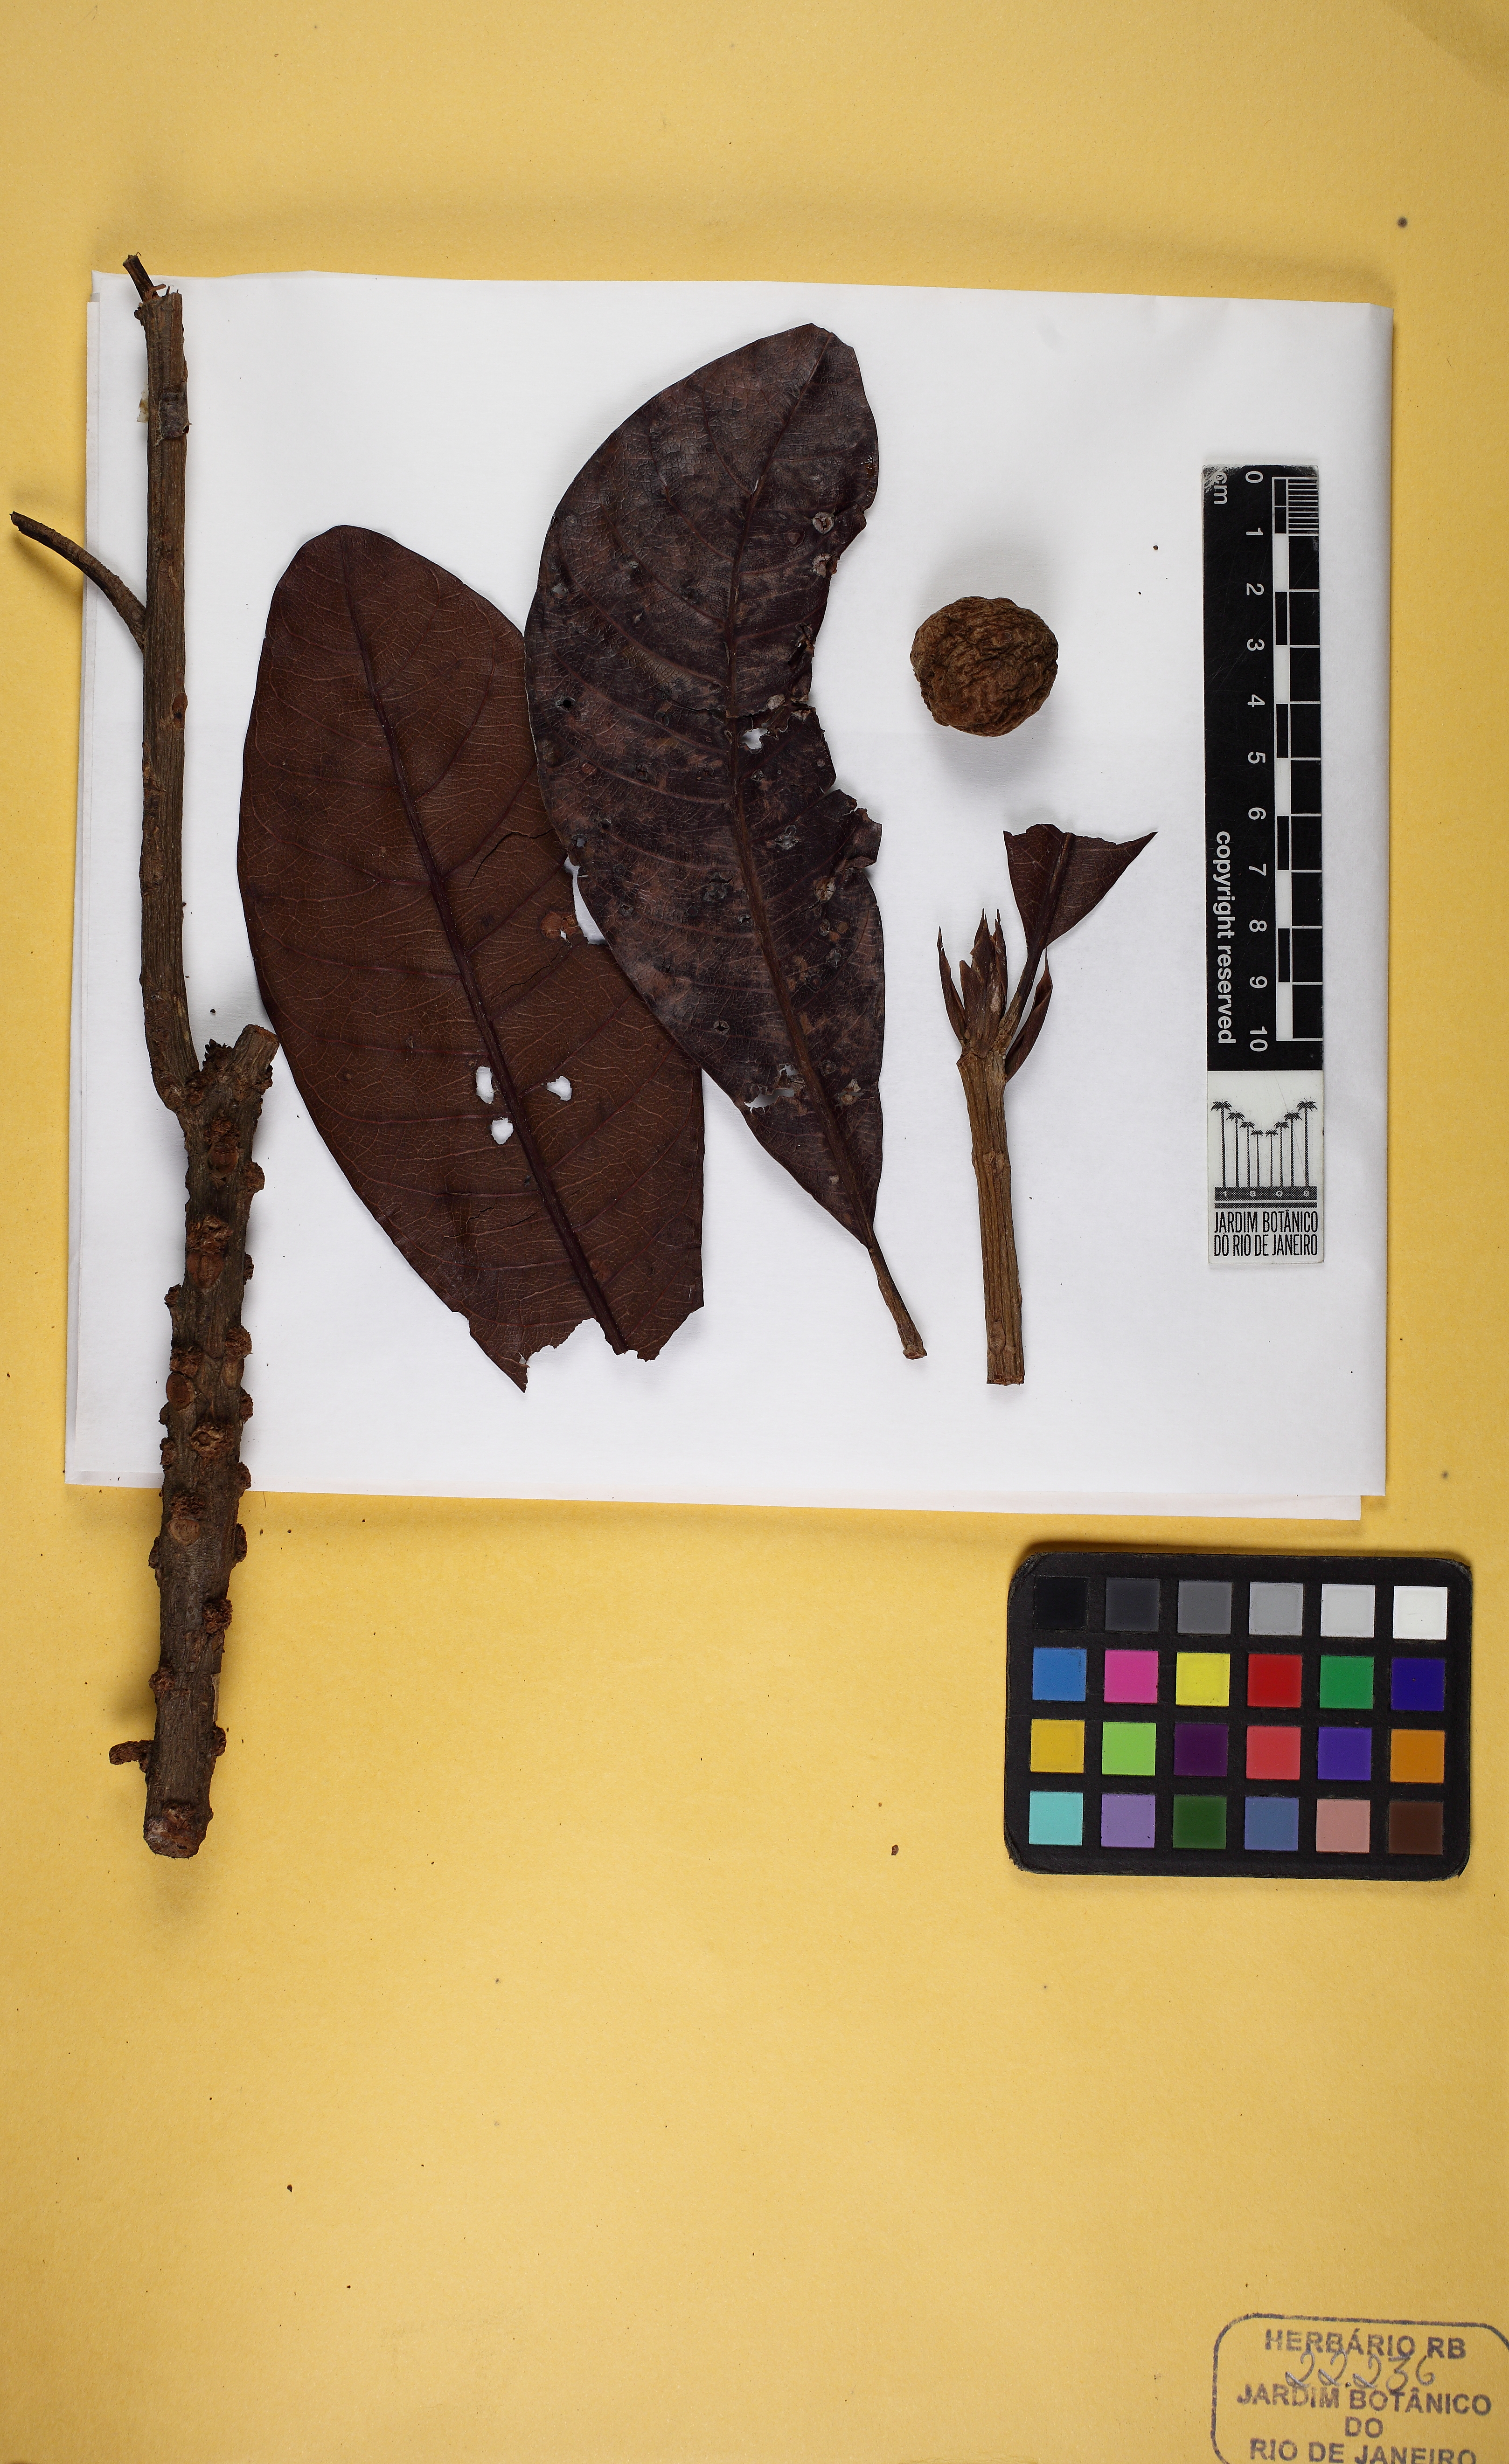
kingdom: Plantae
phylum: Tracheophyta
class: Magnoliopsida
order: Ericales
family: Sapotaceae
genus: Chromolucuma
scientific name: Chromolucuma rubriflora
